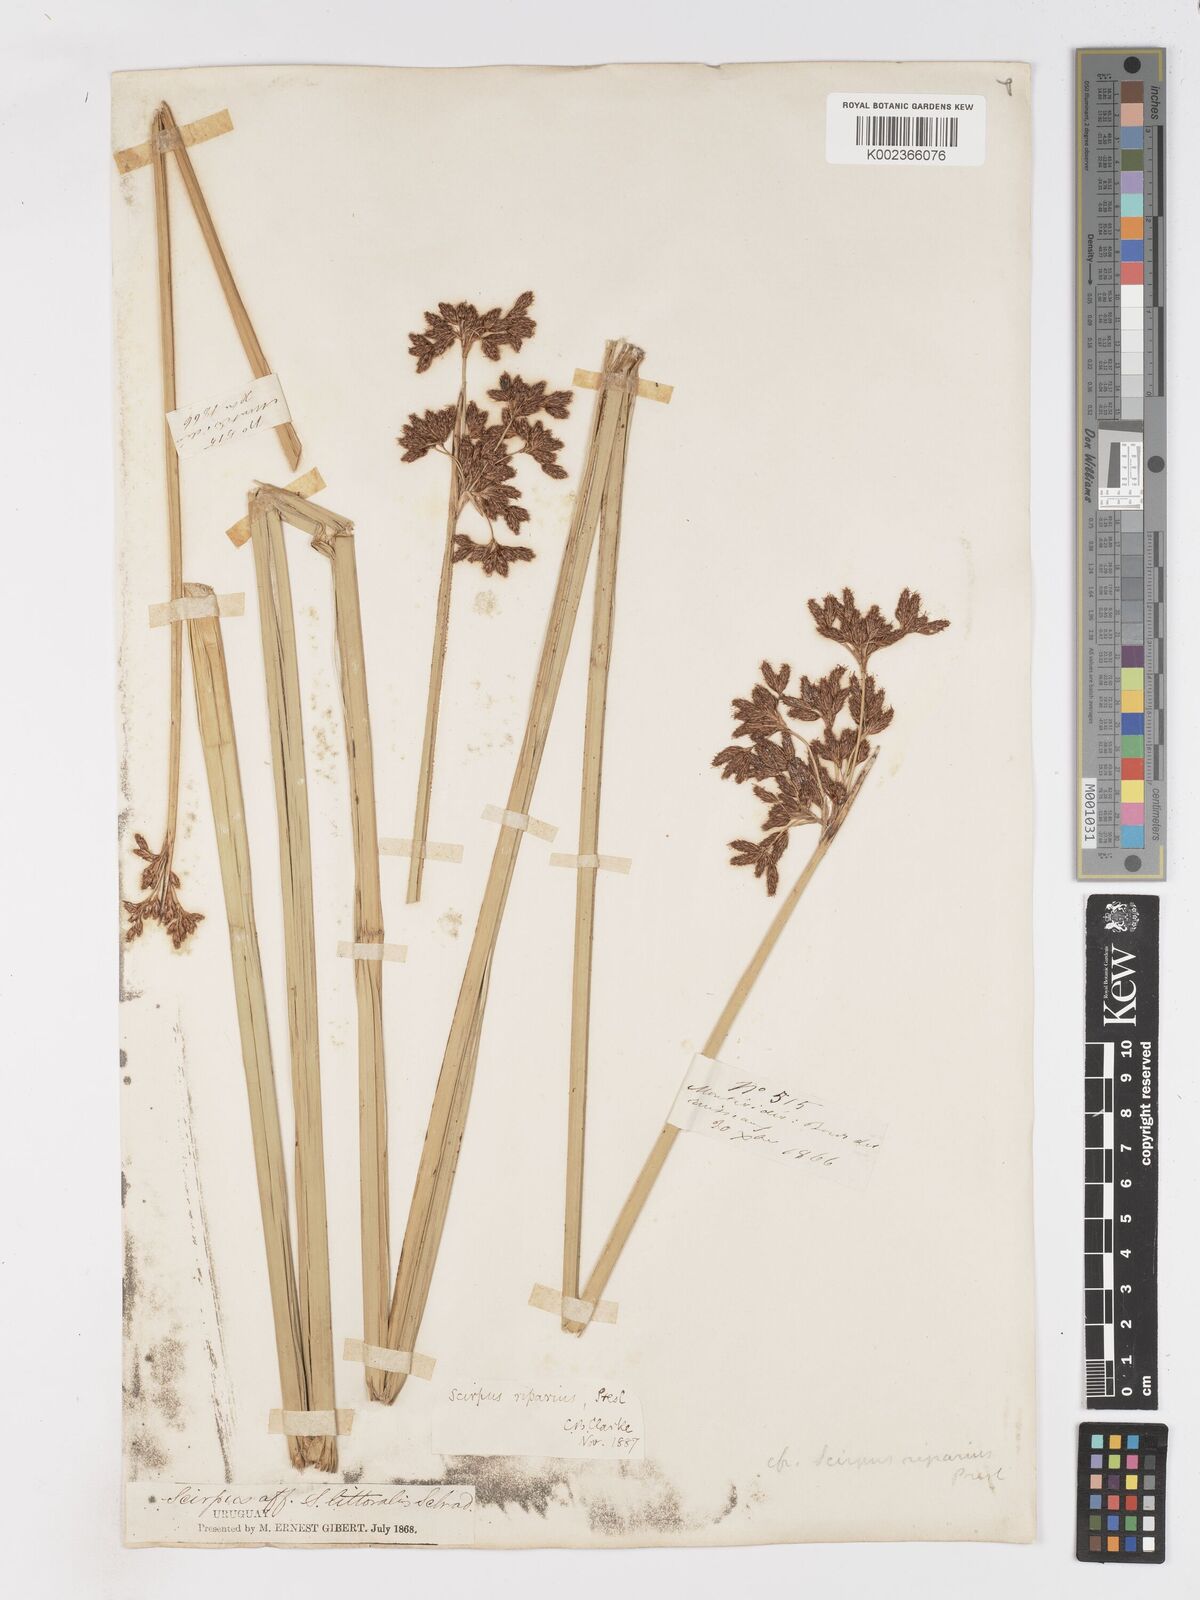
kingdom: Plantae
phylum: Tracheophyta
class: Liliopsida
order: Poales
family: Cyperaceae
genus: Schoenoplectus
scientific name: Schoenoplectus californicus
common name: California bulrush
